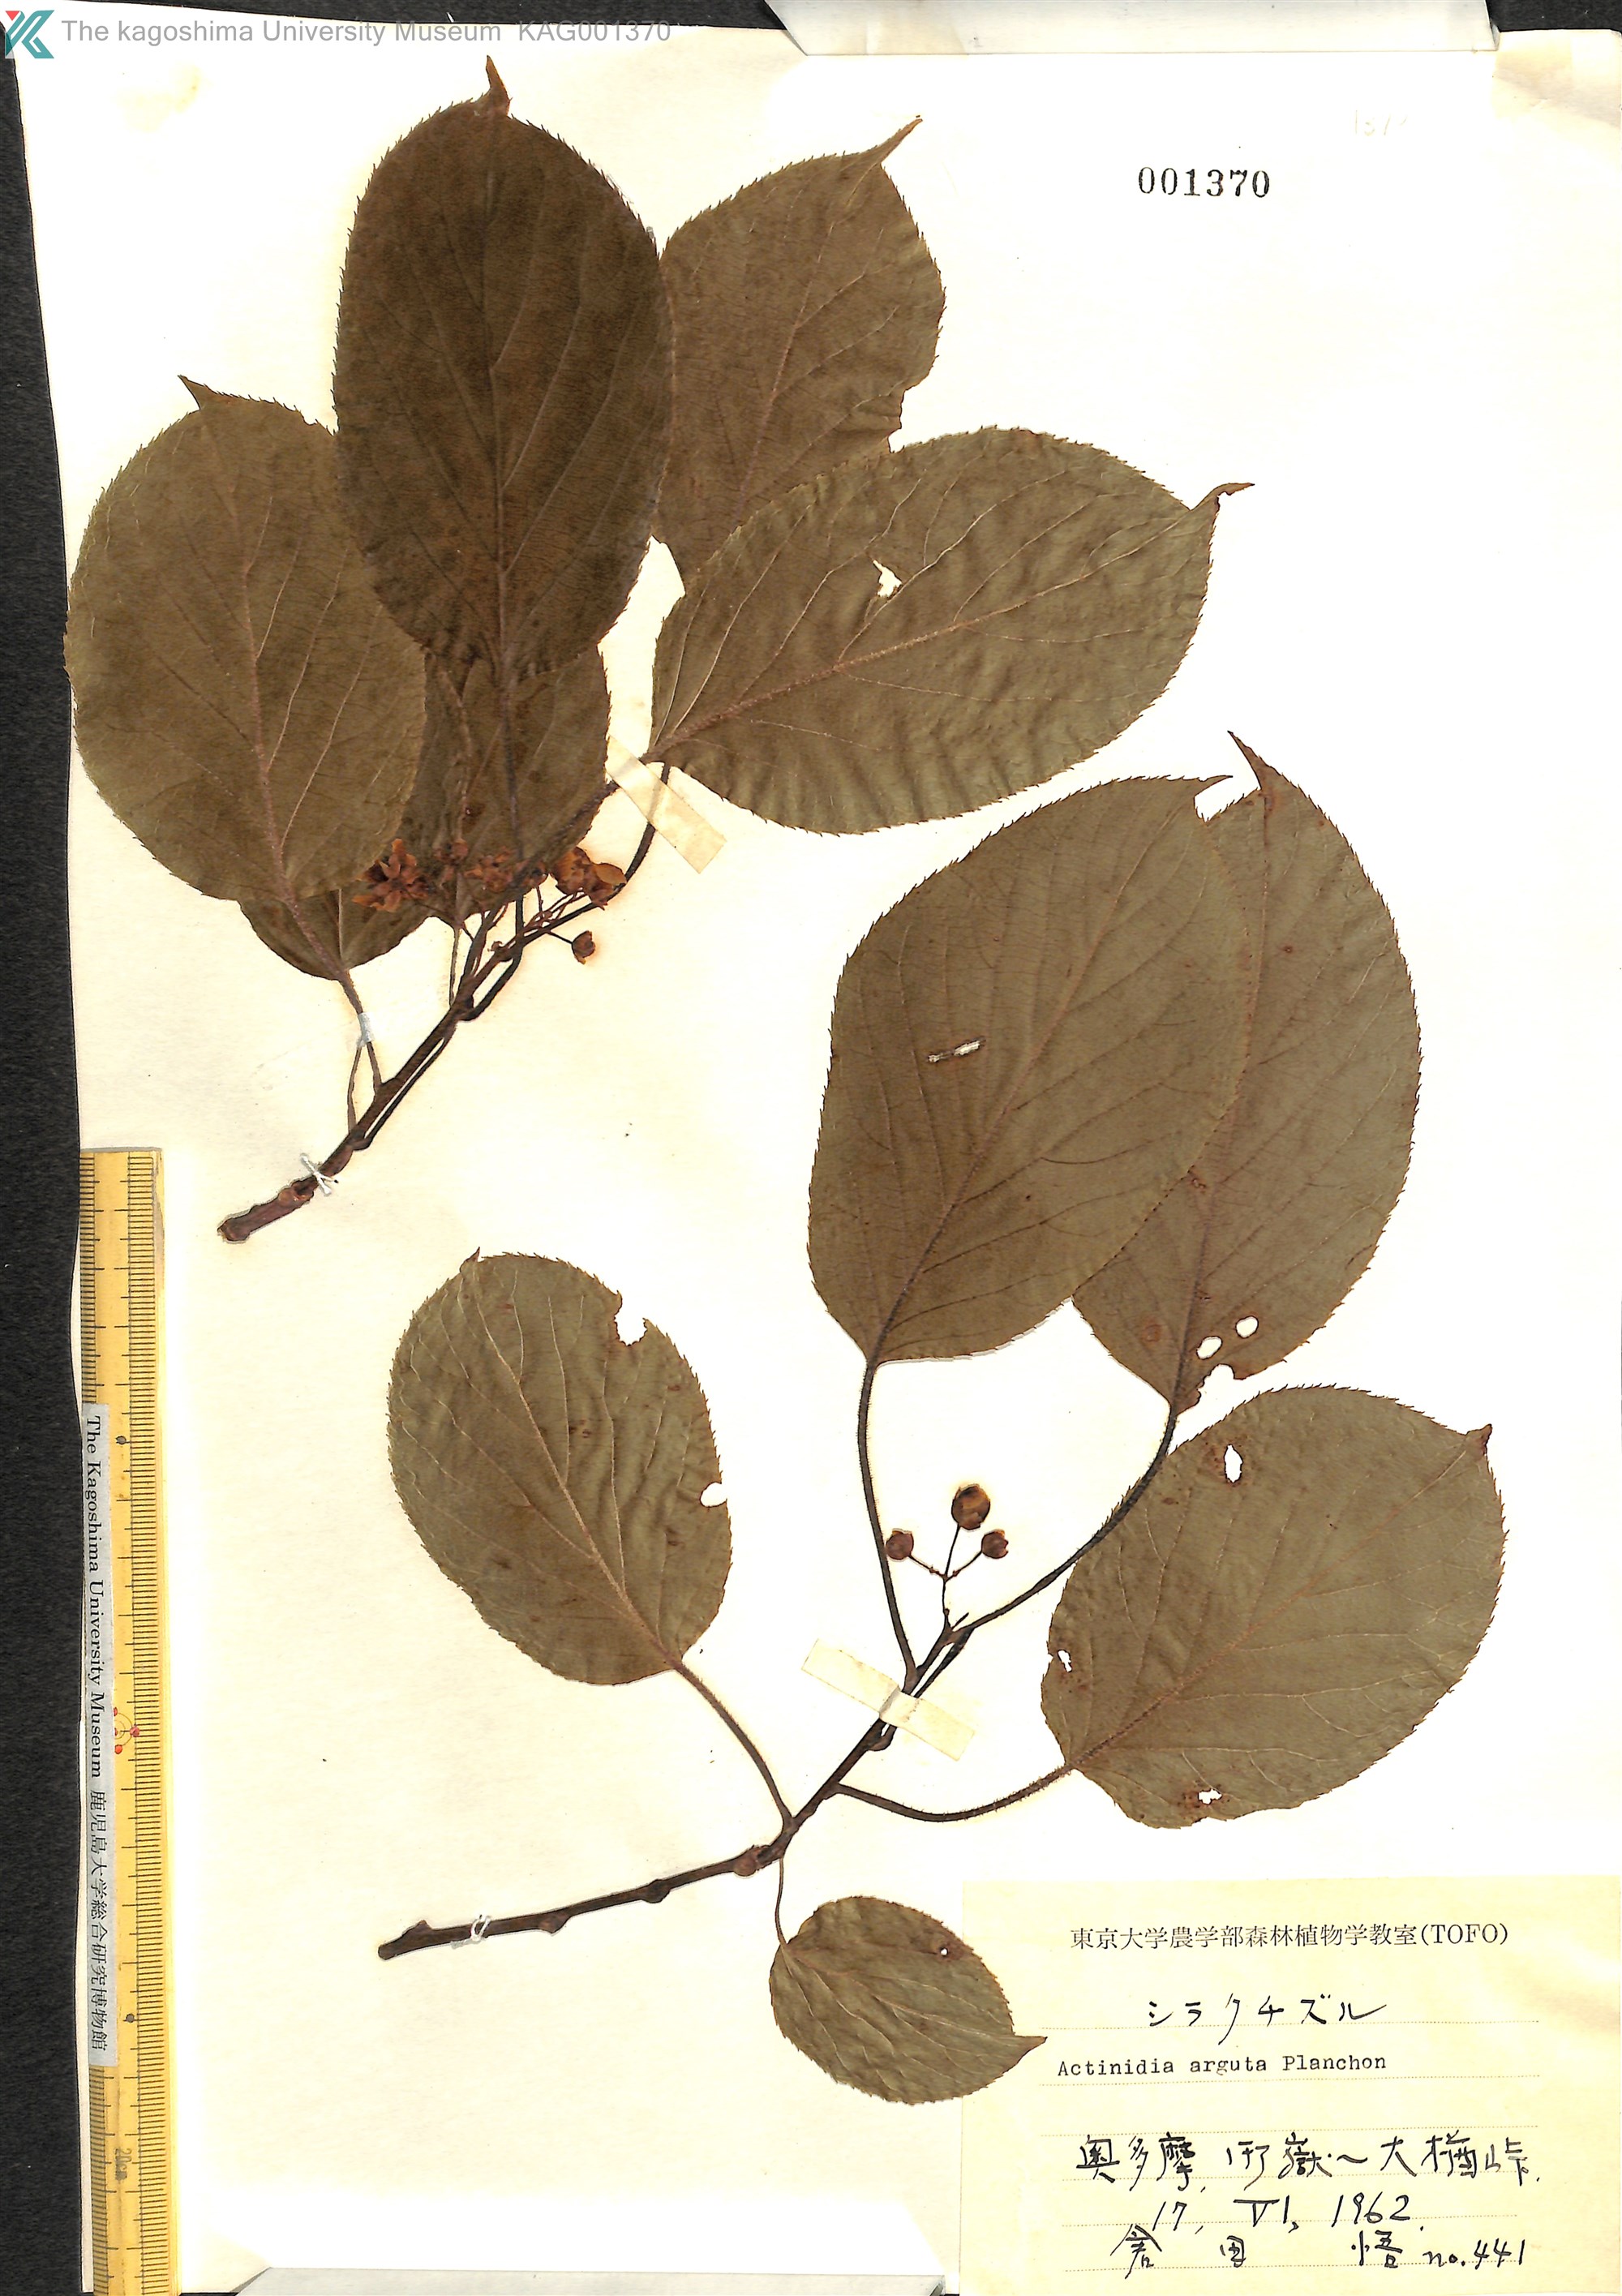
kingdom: Plantae
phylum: Tracheophyta
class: Magnoliopsida
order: Ericales
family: Actinidiaceae
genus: Actinidia
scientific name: Actinidia arguta
